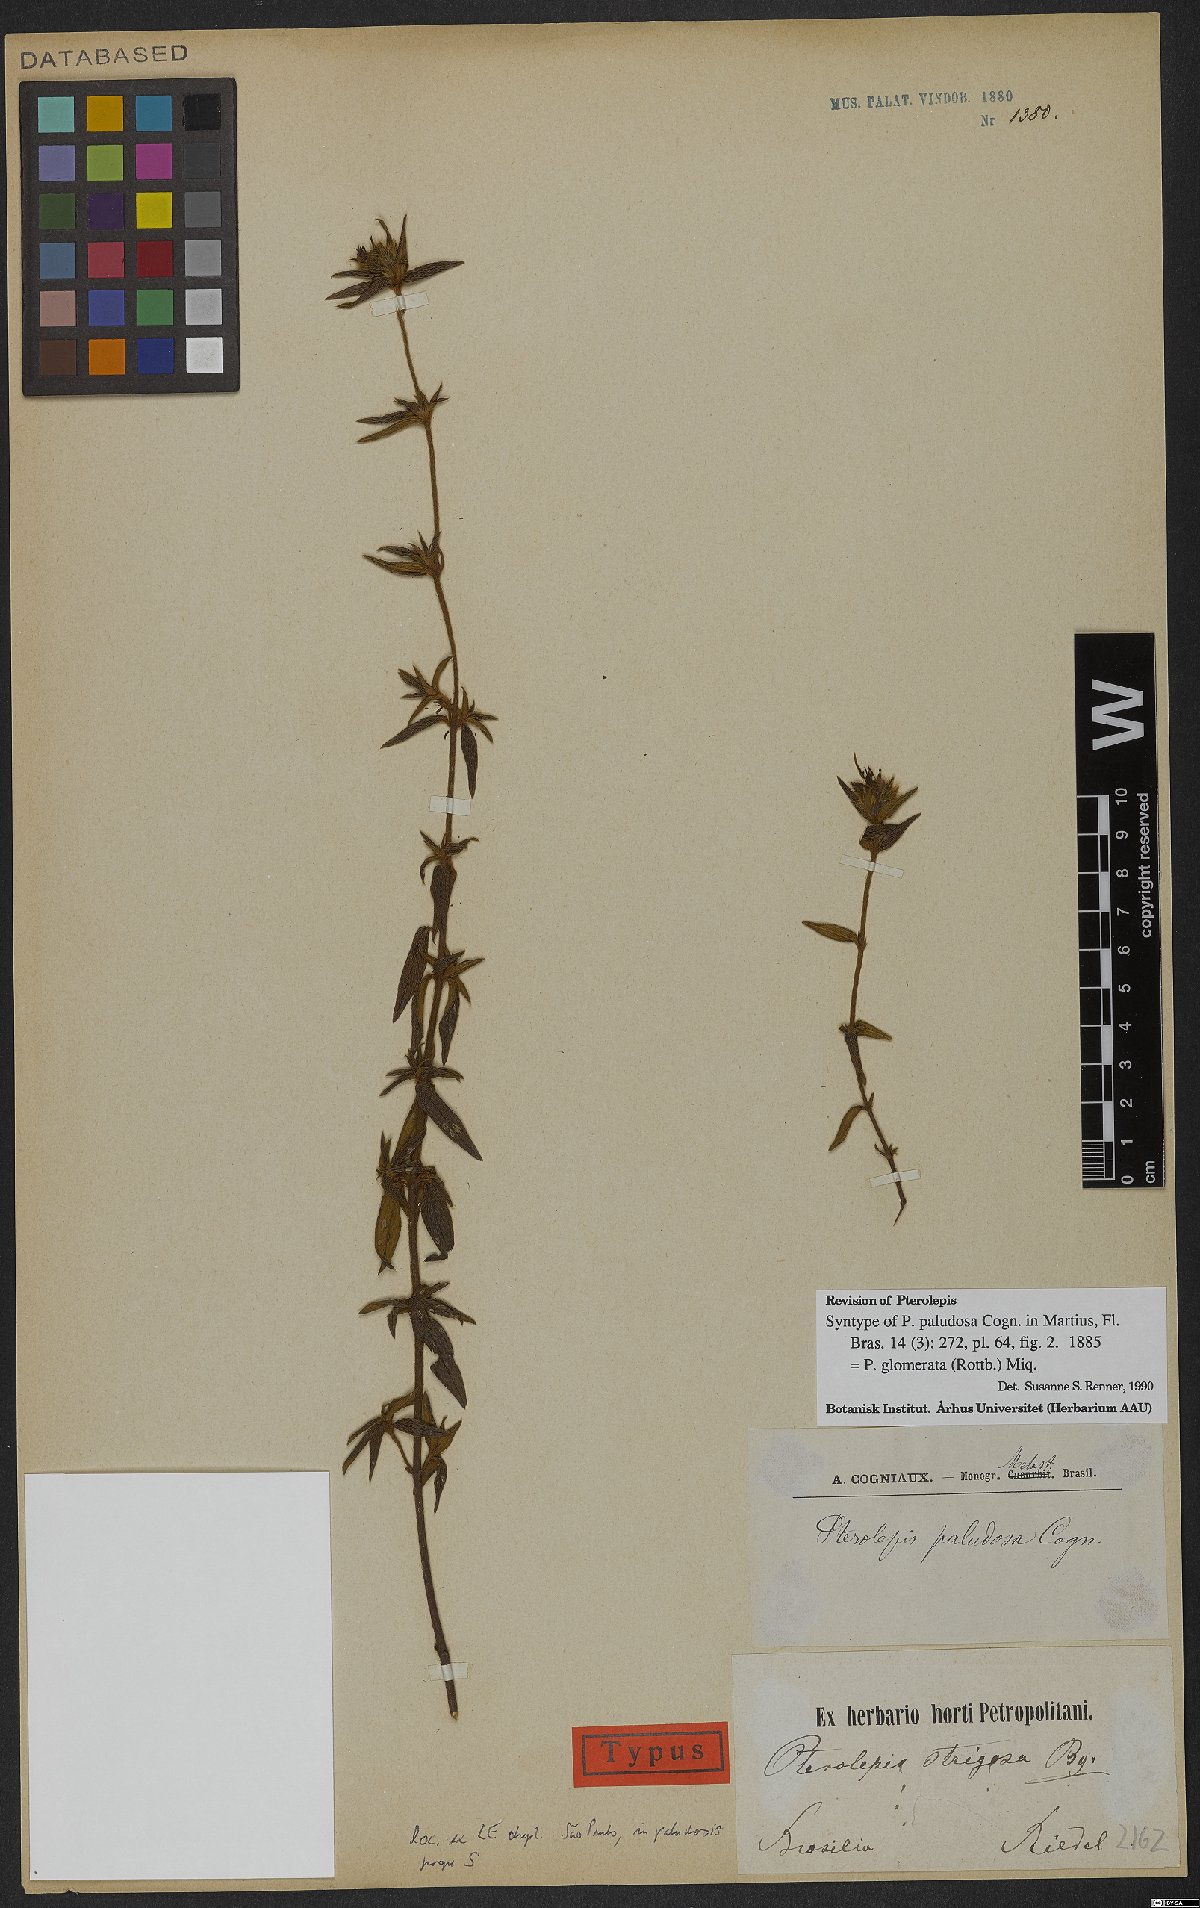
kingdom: Plantae
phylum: Tracheophyta
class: Magnoliopsida
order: Myrtales
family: Melastomataceae
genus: Pterolepis
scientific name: Pterolepis glomerata
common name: False meadowbeauty
